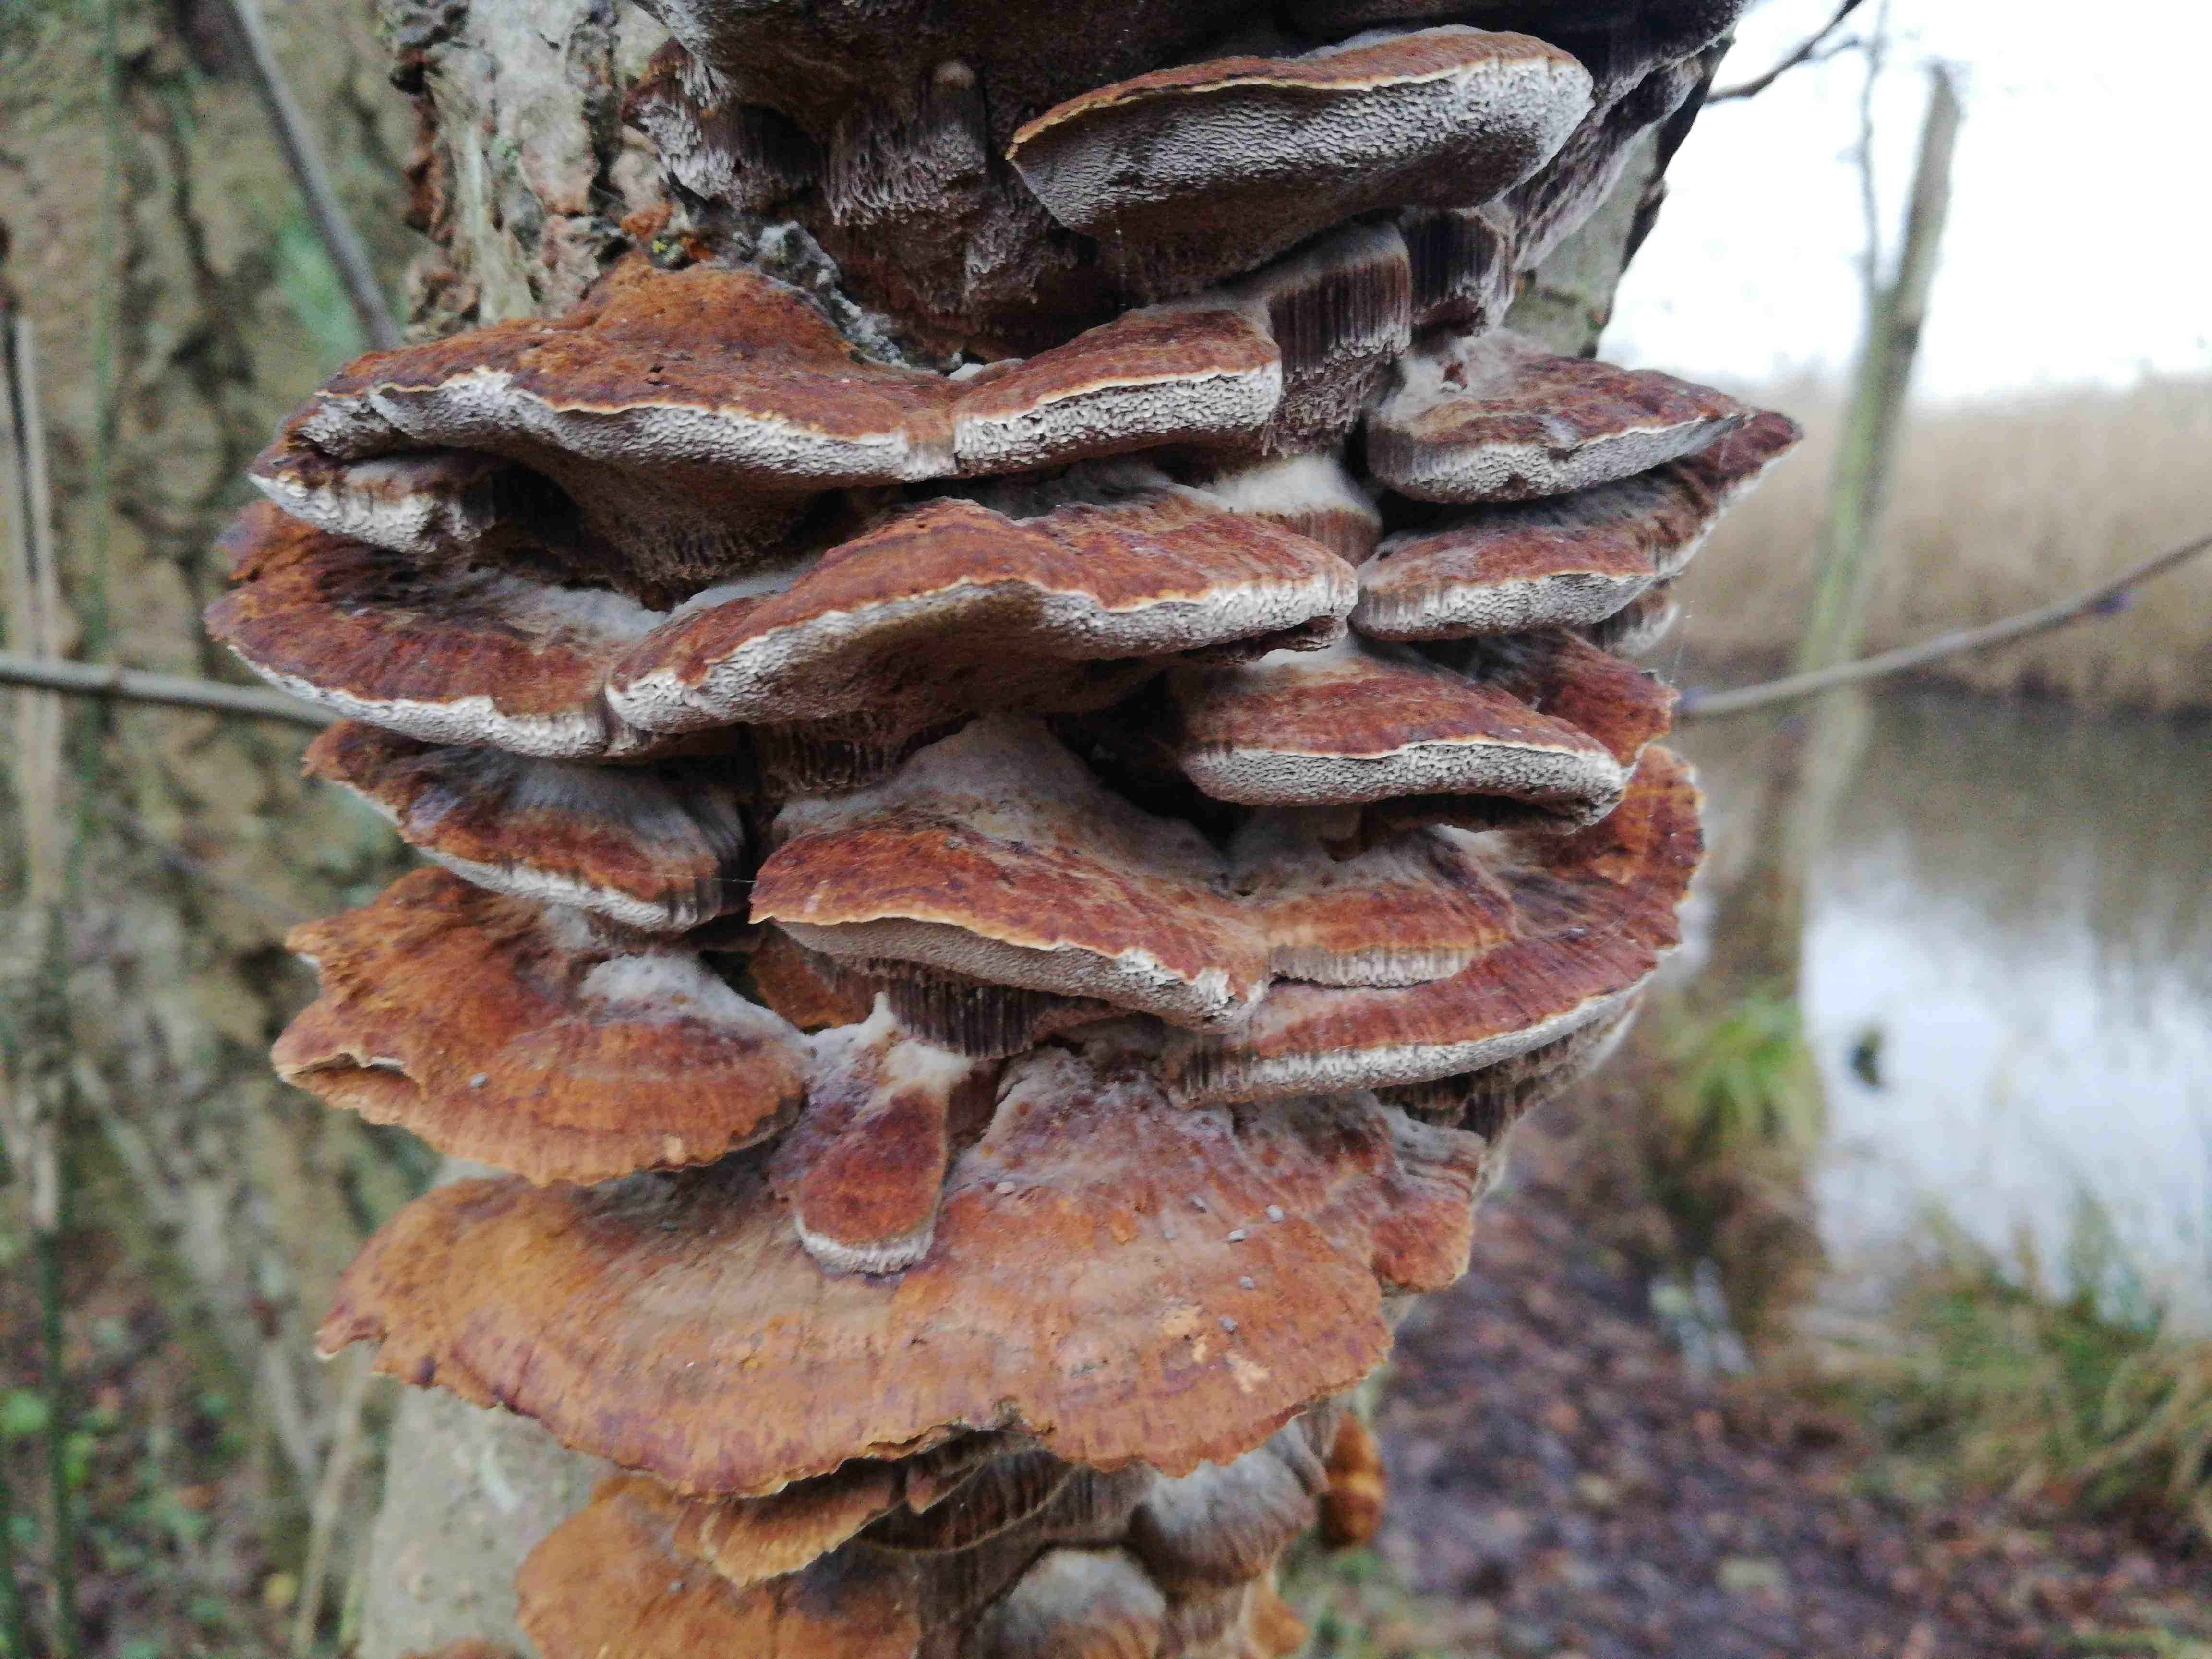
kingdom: Fungi
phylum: Basidiomycota
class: Agaricomycetes
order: Hymenochaetales
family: Hymenochaetaceae
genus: Xanthoporia
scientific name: Xanthoporia radiata
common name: elle-spejlporesvamp
